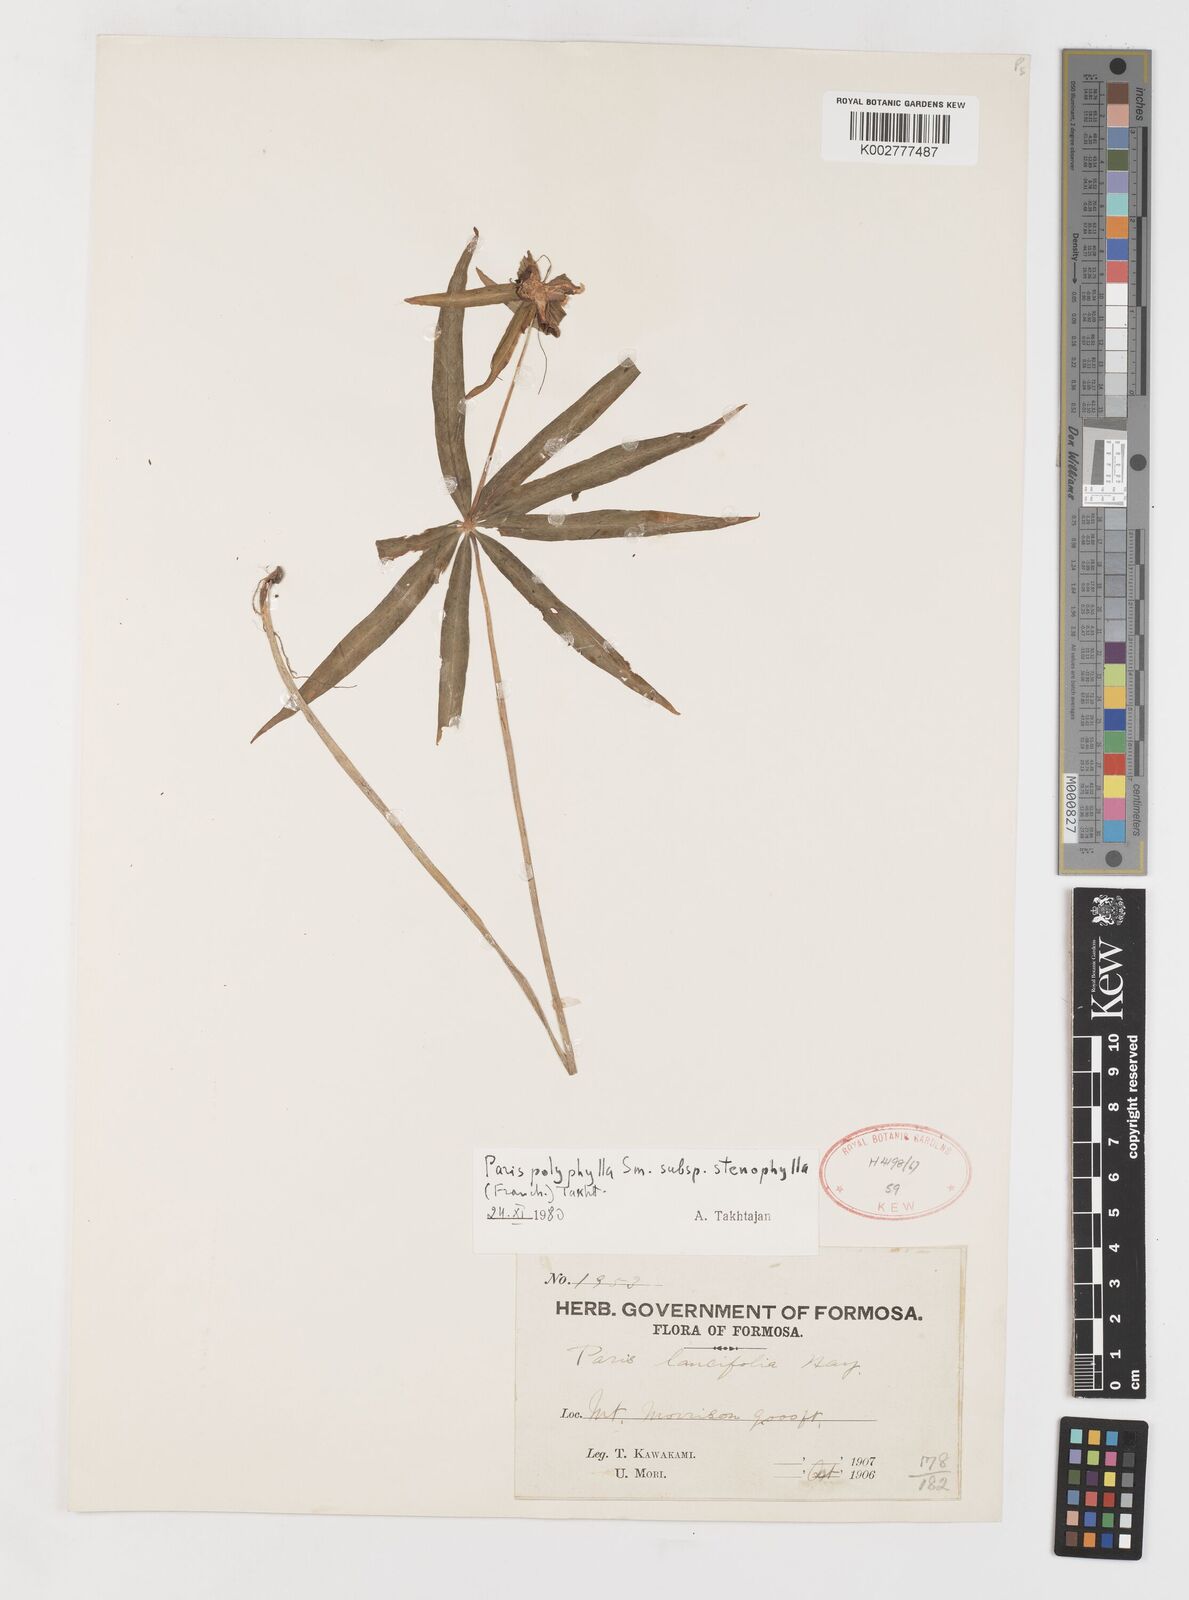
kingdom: Plantae
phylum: Tracheophyta
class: Liliopsida
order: Liliales
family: Melanthiaceae
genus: Paris
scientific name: Paris lancifolia
